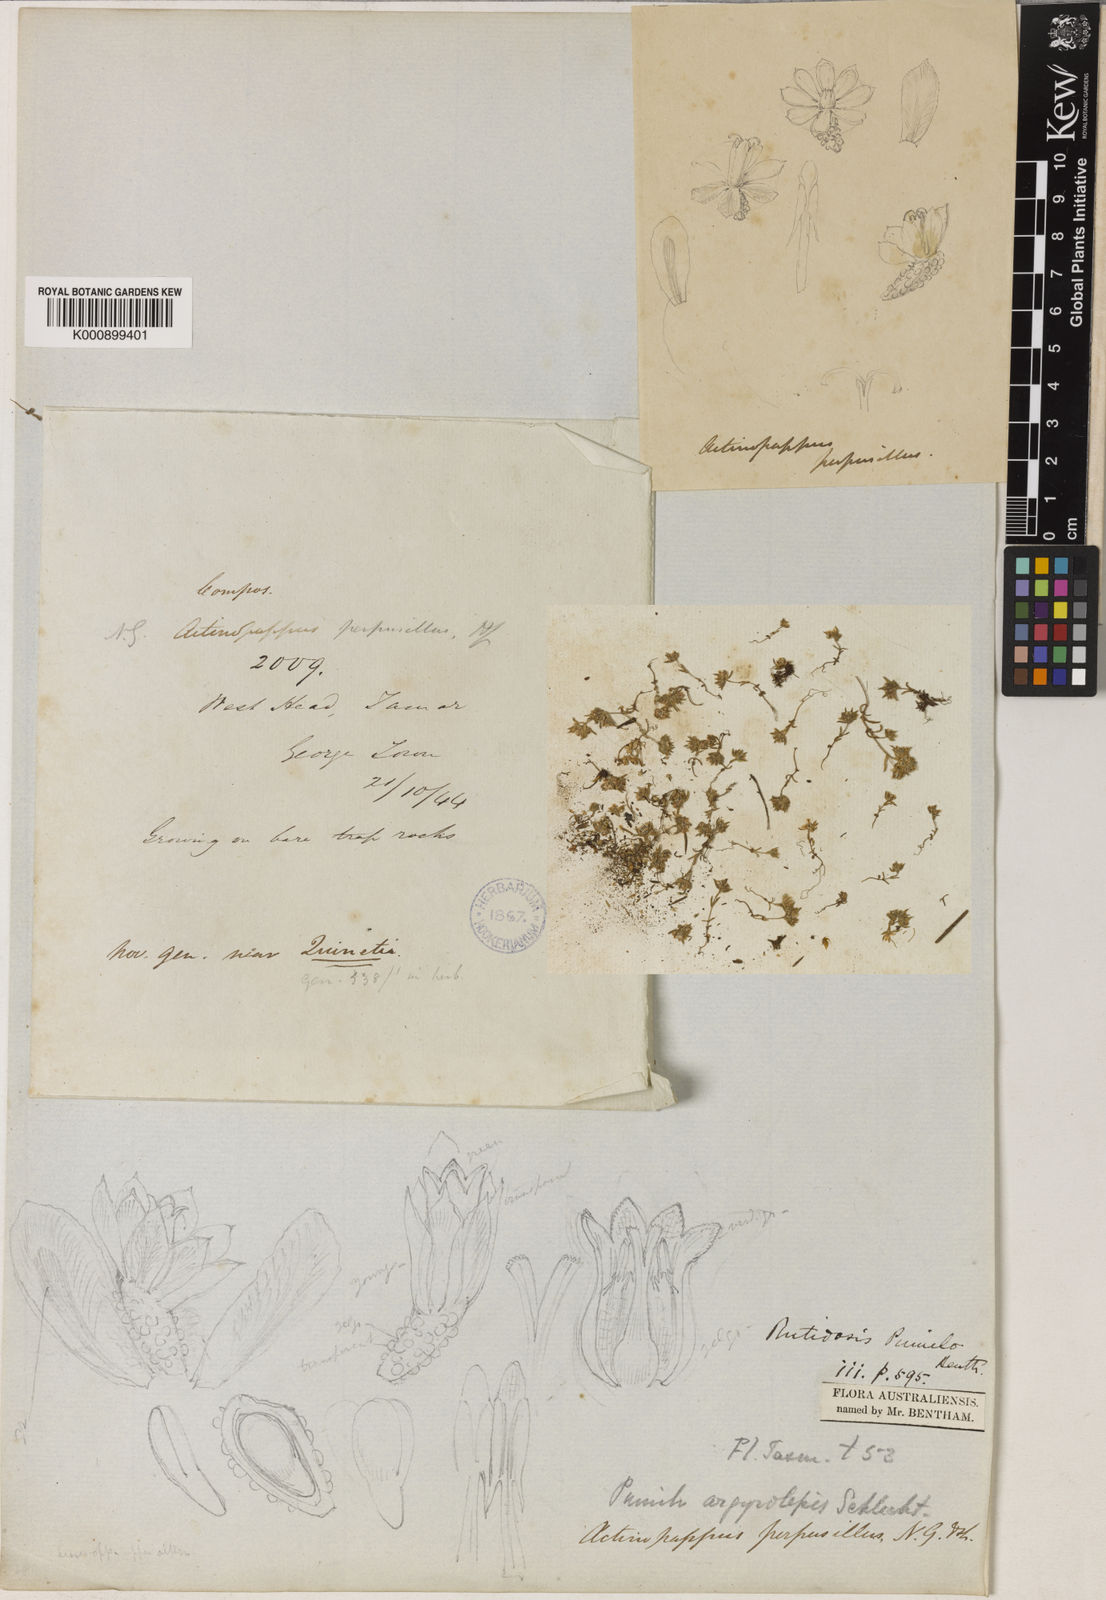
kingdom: Plantae
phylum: Tracheophyta
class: Magnoliopsida
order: Asterales
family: Asteraceae
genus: Siloxerus
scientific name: Siloxerus multiflorus
